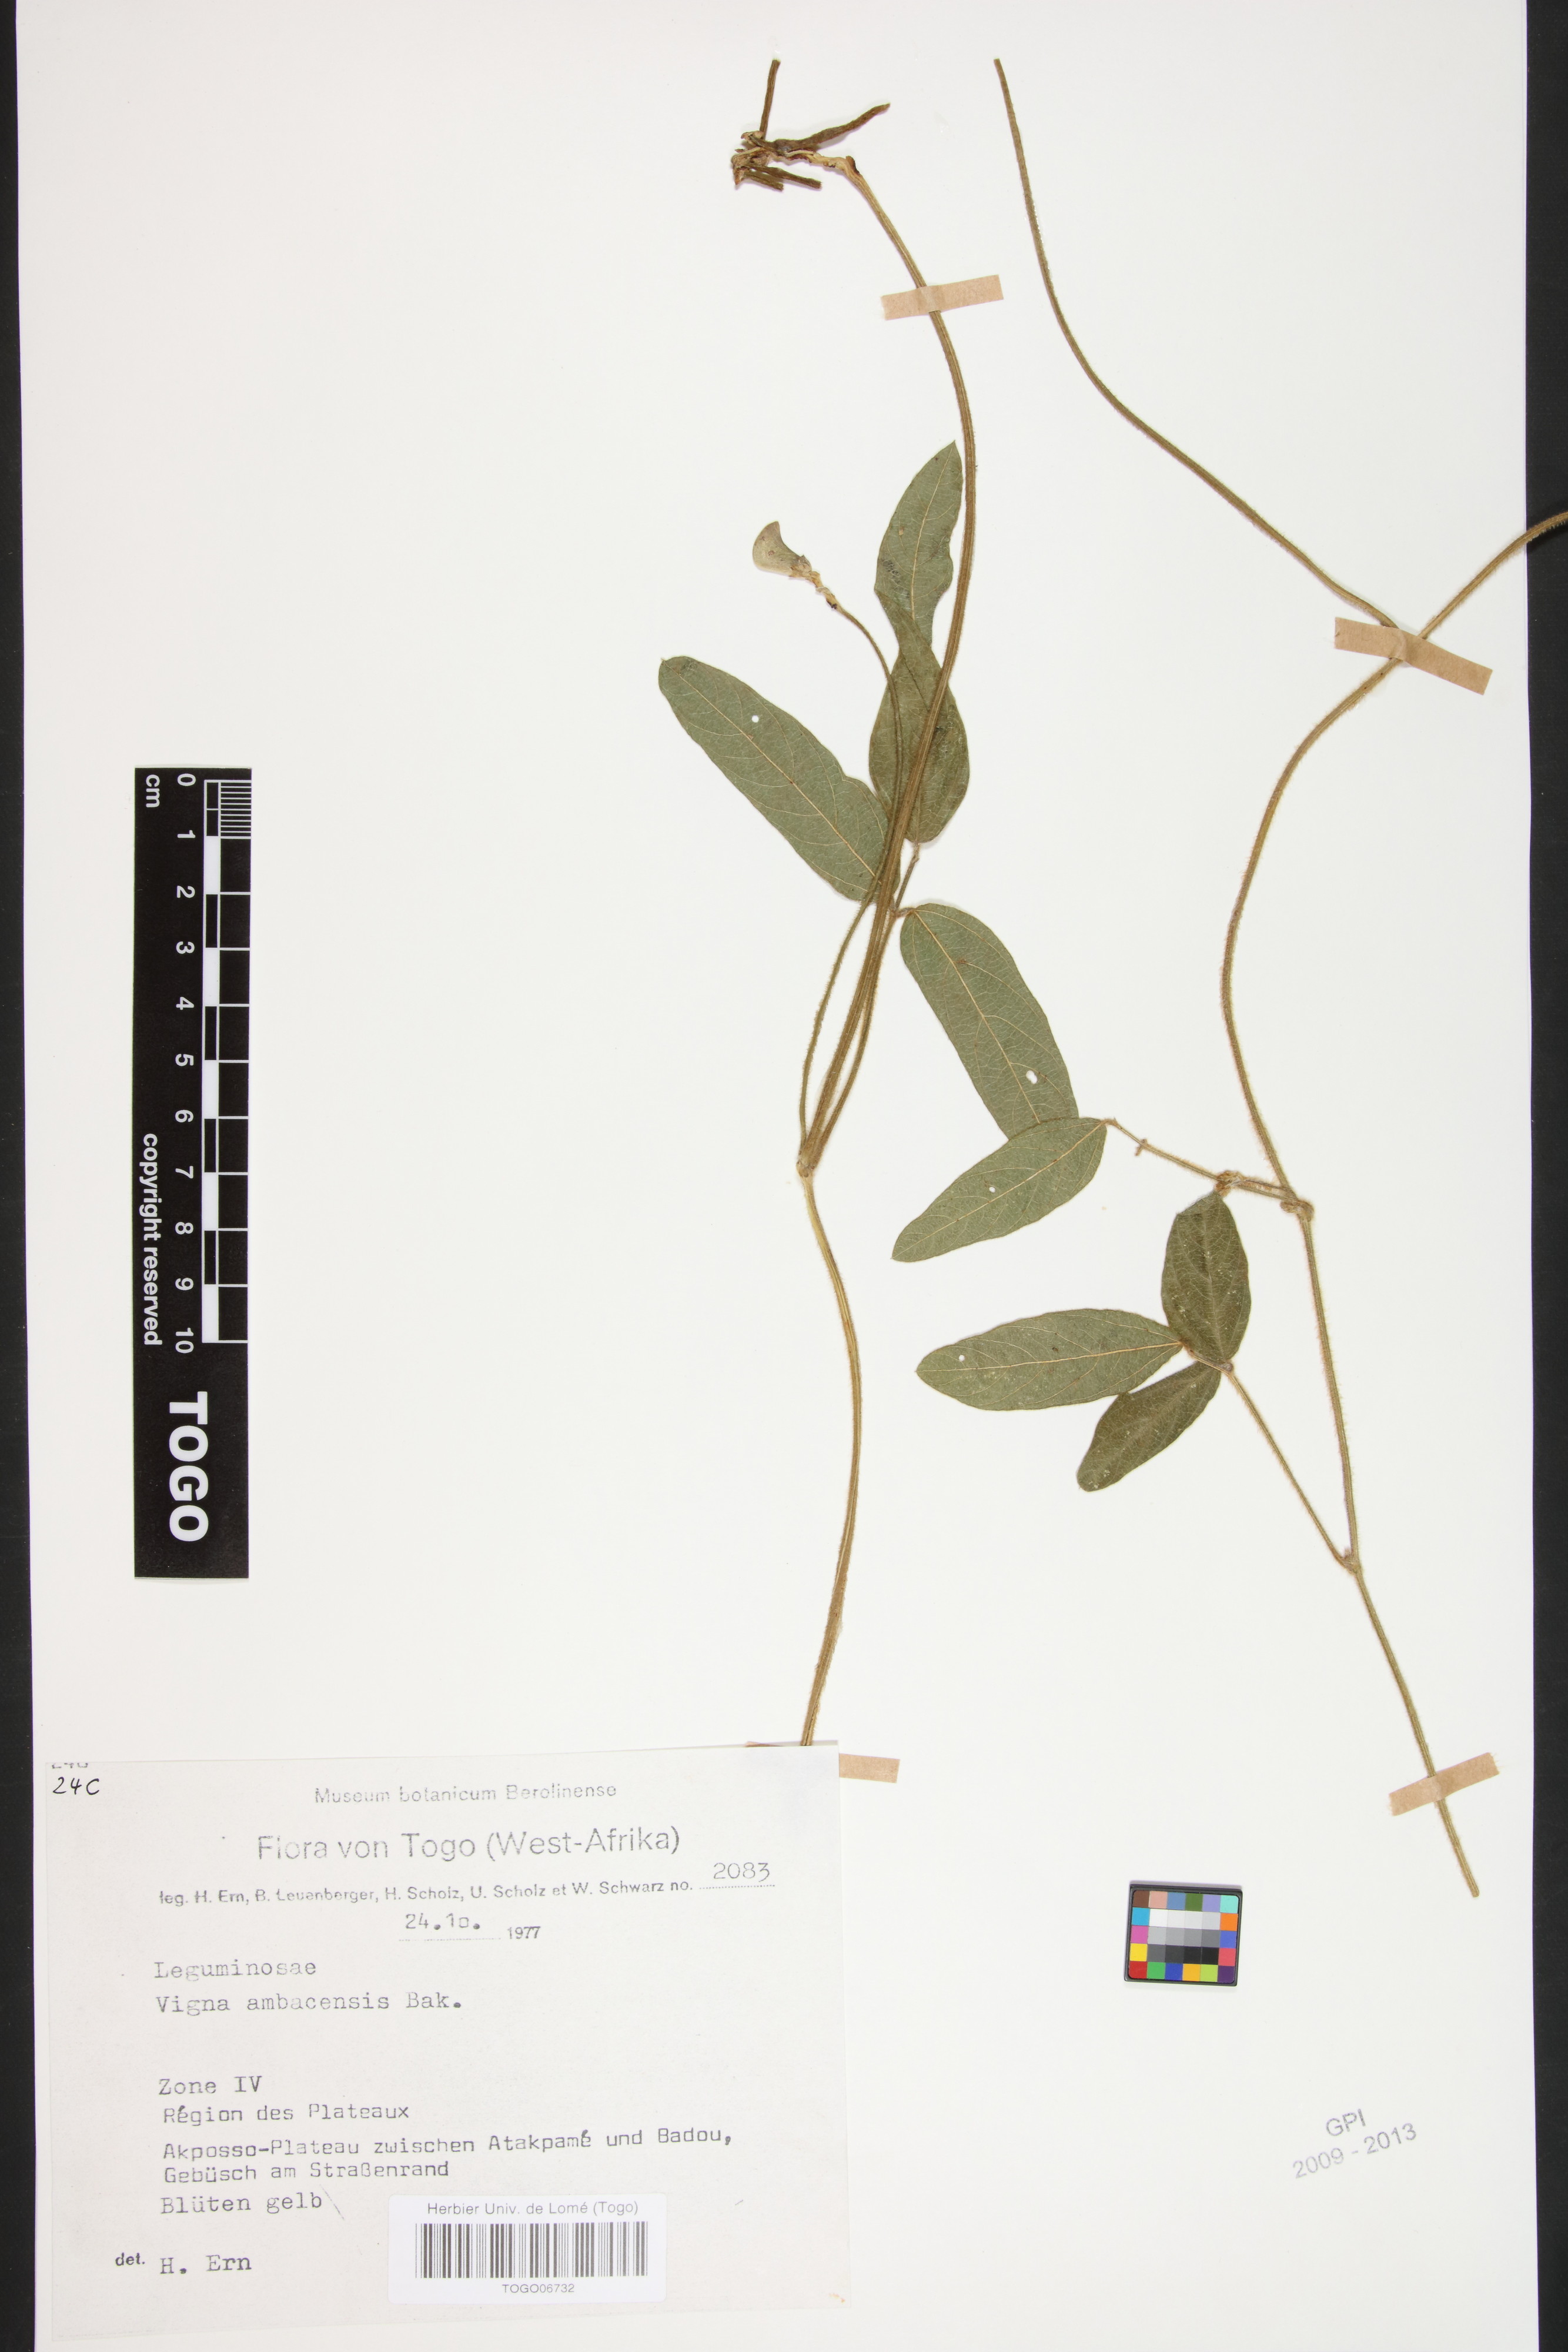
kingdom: Plantae
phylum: Tracheophyta
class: Magnoliopsida
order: Fabales
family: Fabaceae
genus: Vigna
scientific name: Vigna ambacensis
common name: Tsarkiyan zomo
